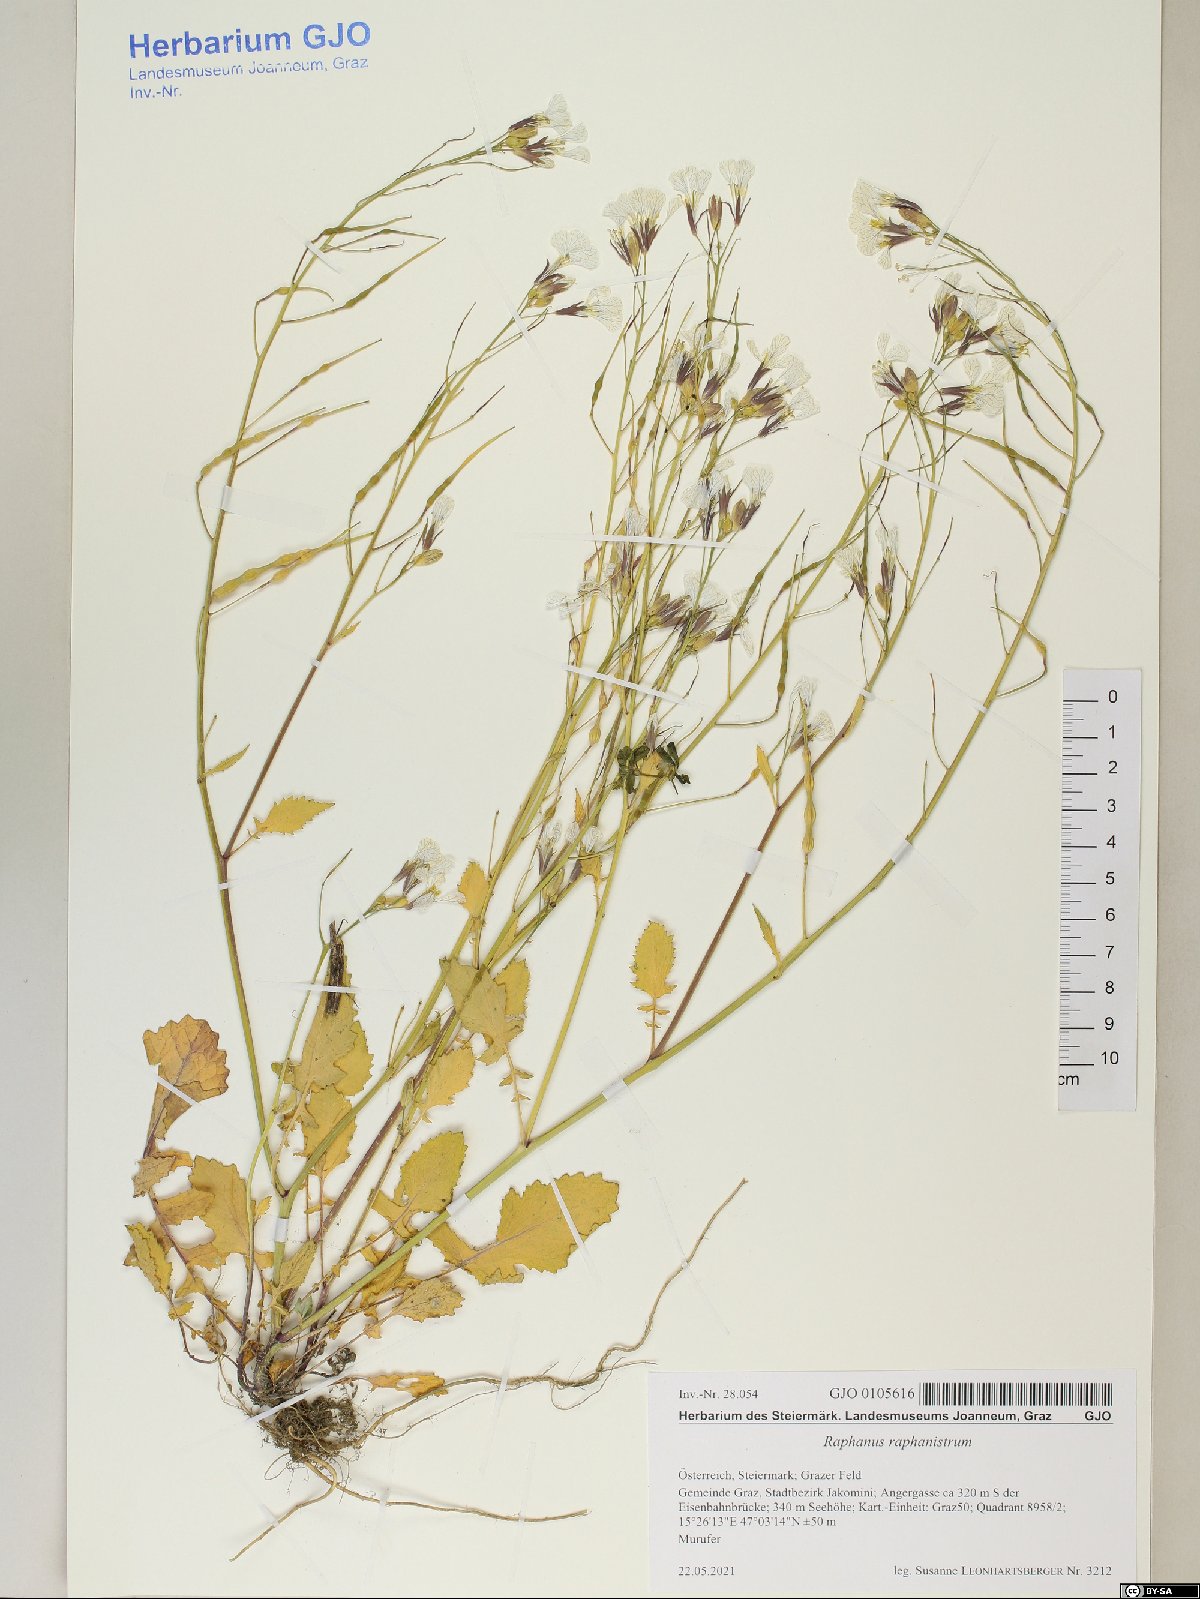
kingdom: Plantae
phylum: Tracheophyta
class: Magnoliopsida
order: Brassicales
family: Brassicaceae
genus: Raphanus
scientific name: Raphanus raphanistrum
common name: Wild radish
